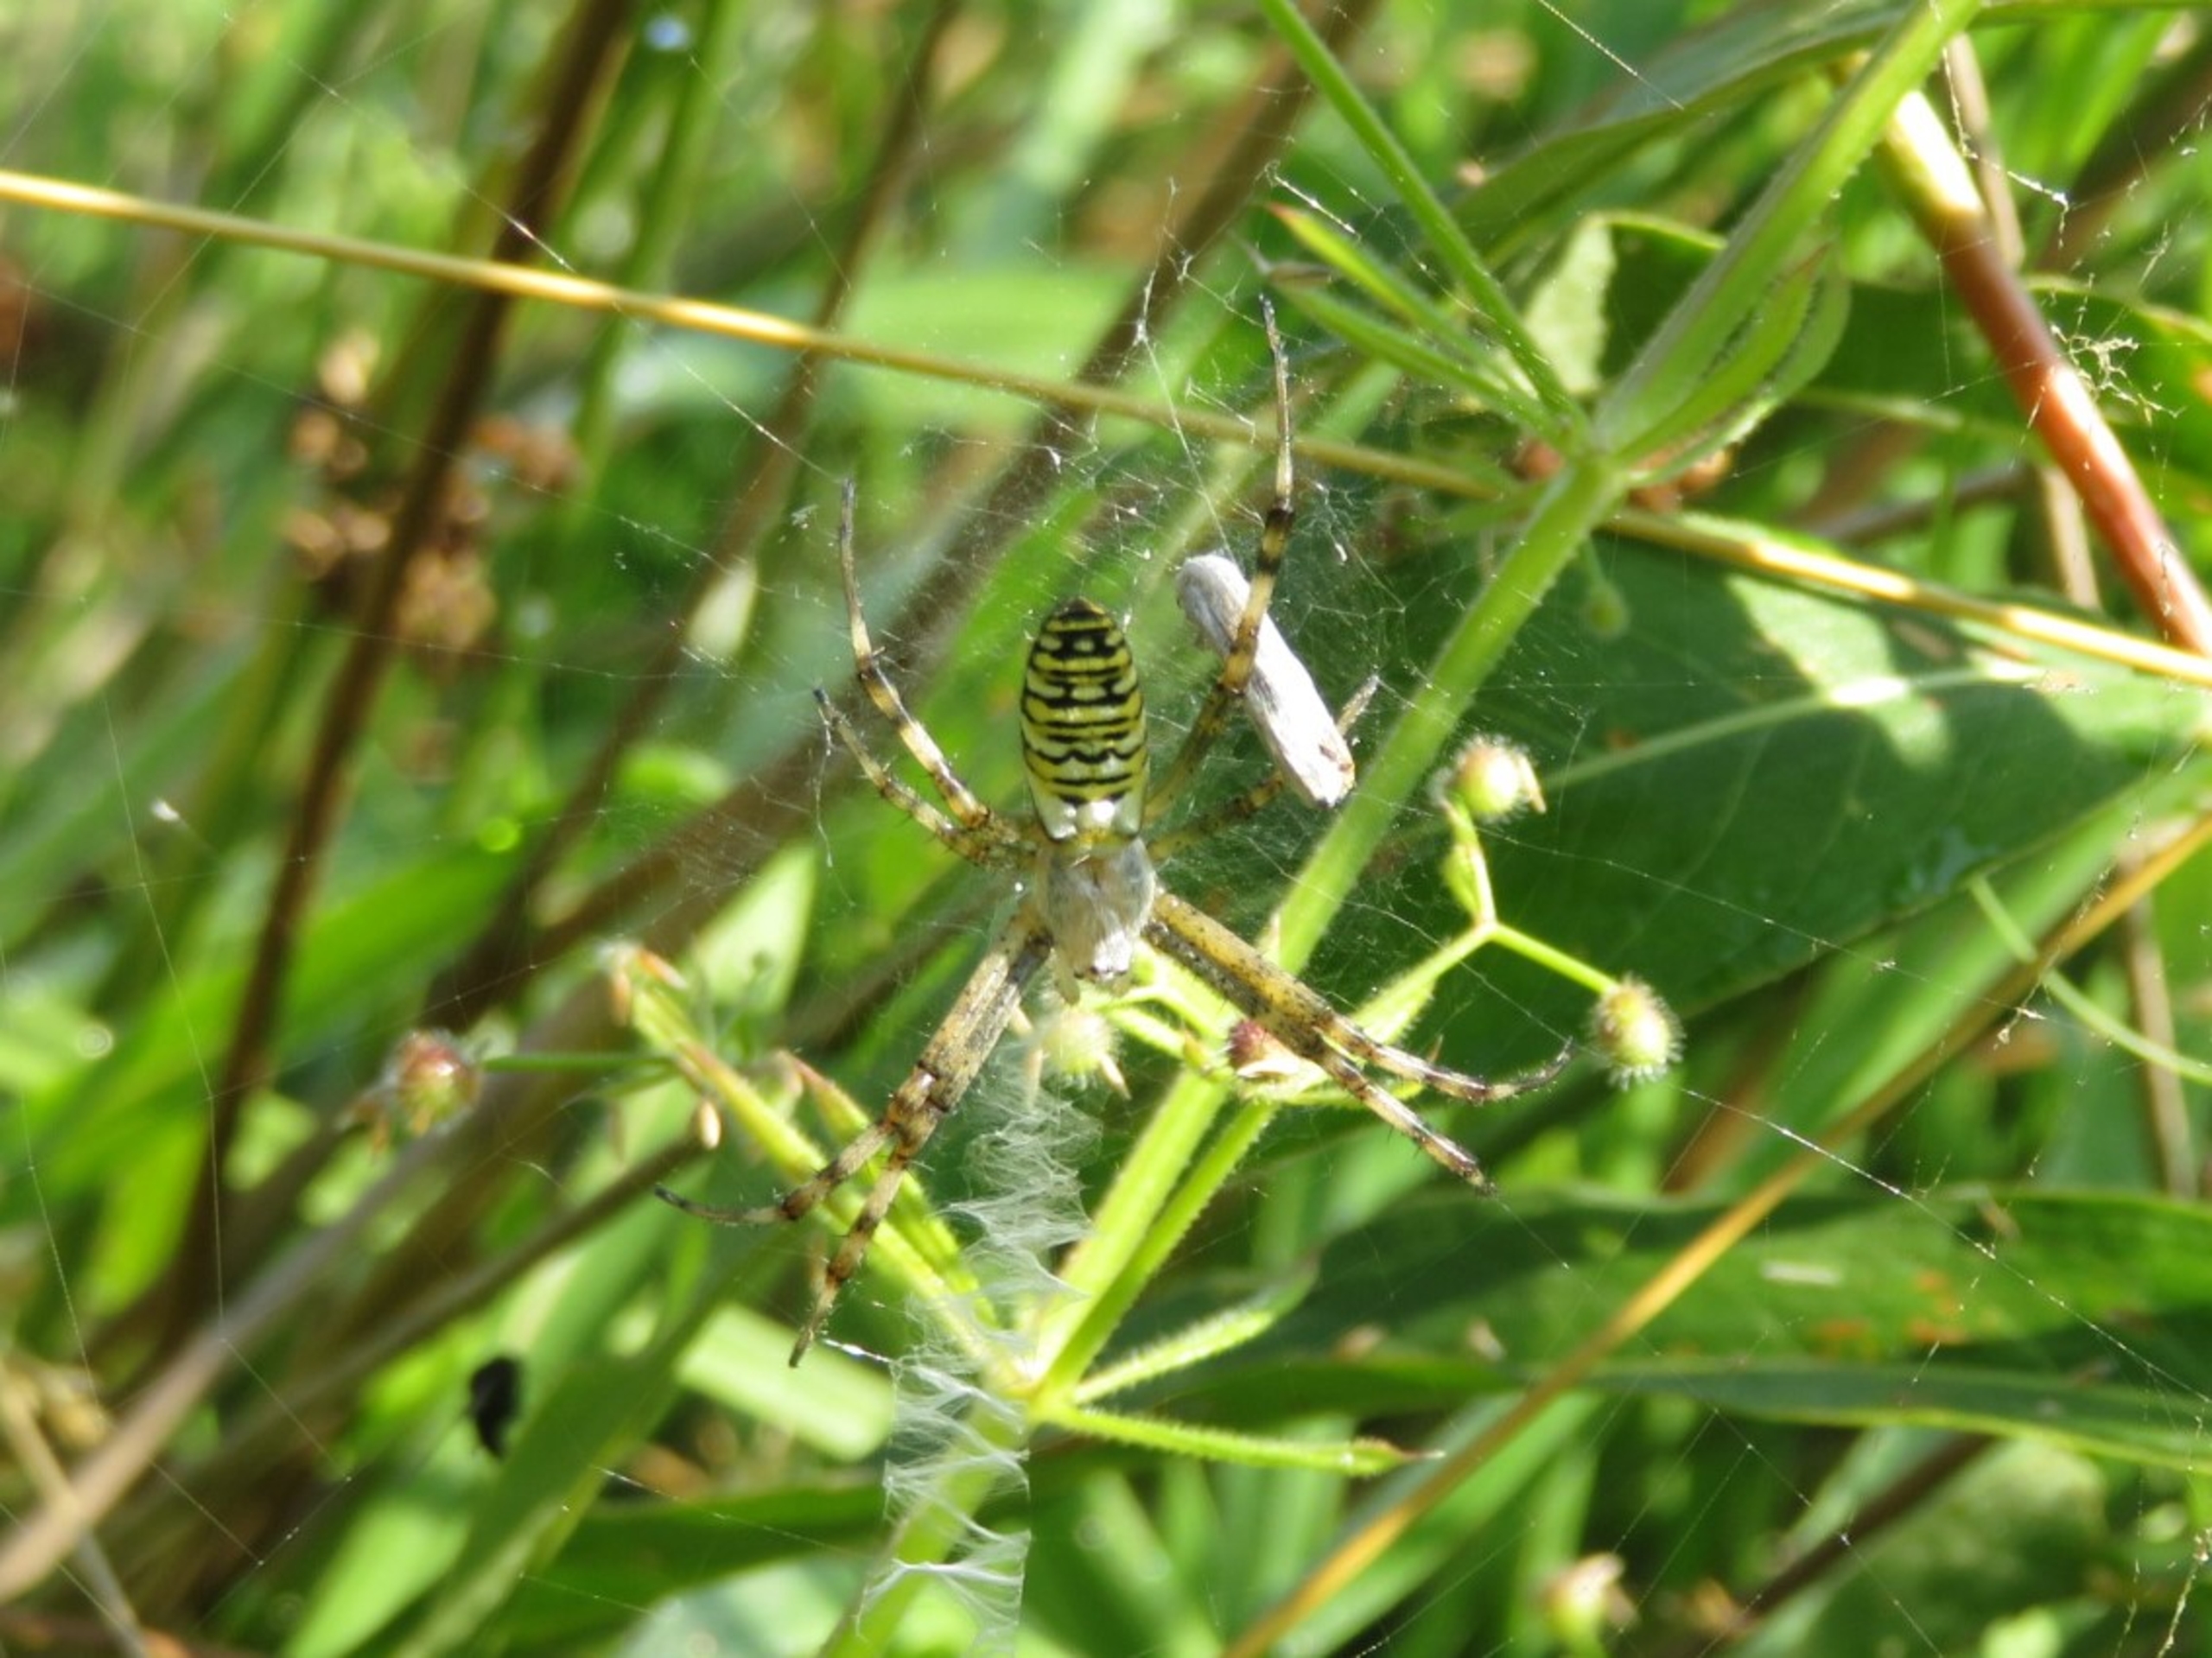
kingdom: Animalia
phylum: Arthropoda
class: Arachnida
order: Araneae
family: Araneidae
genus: Argiope
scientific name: Argiope bruennichi
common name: Hvepseedderkop
